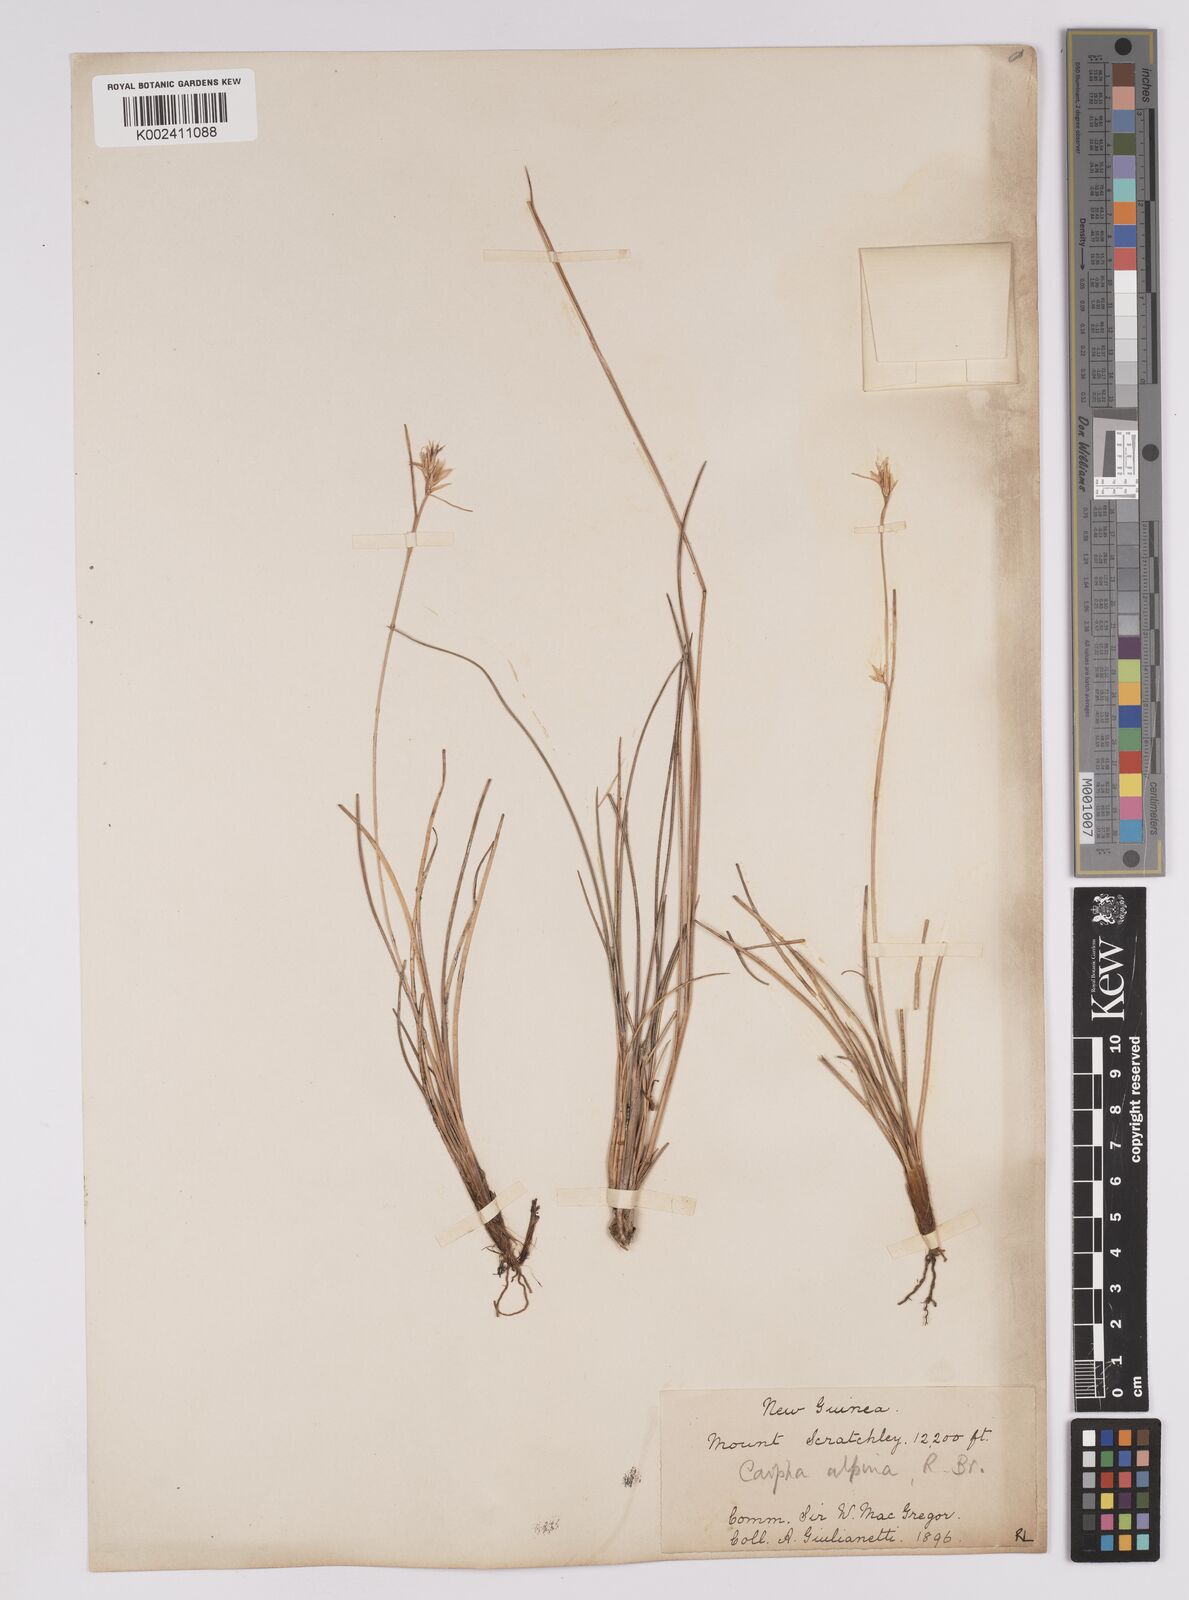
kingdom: Plantae
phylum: Tracheophyta
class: Liliopsida
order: Poales
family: Cyperaceae
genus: Carpha
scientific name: Carpha alpina
